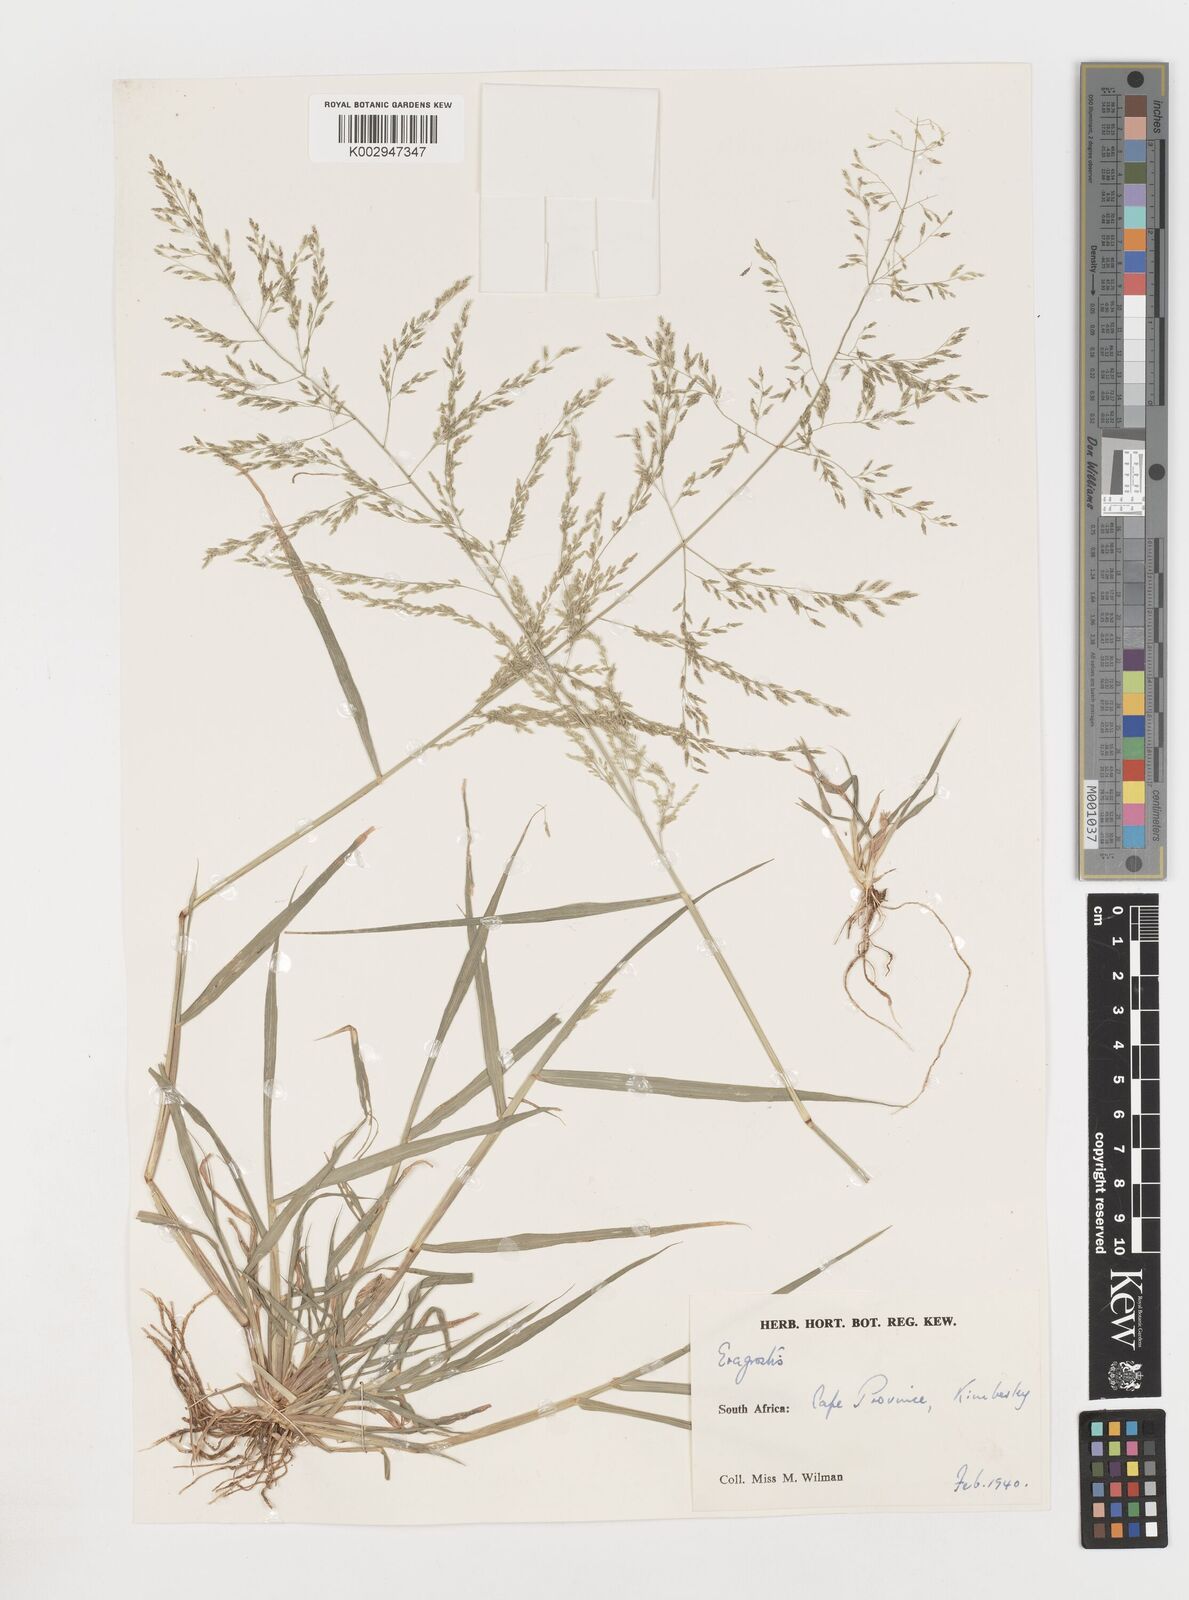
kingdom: Plantae
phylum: Tracheophyta
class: Liliopsida
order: Poales
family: Poaceae
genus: Eragrostis
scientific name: Eragrostis
